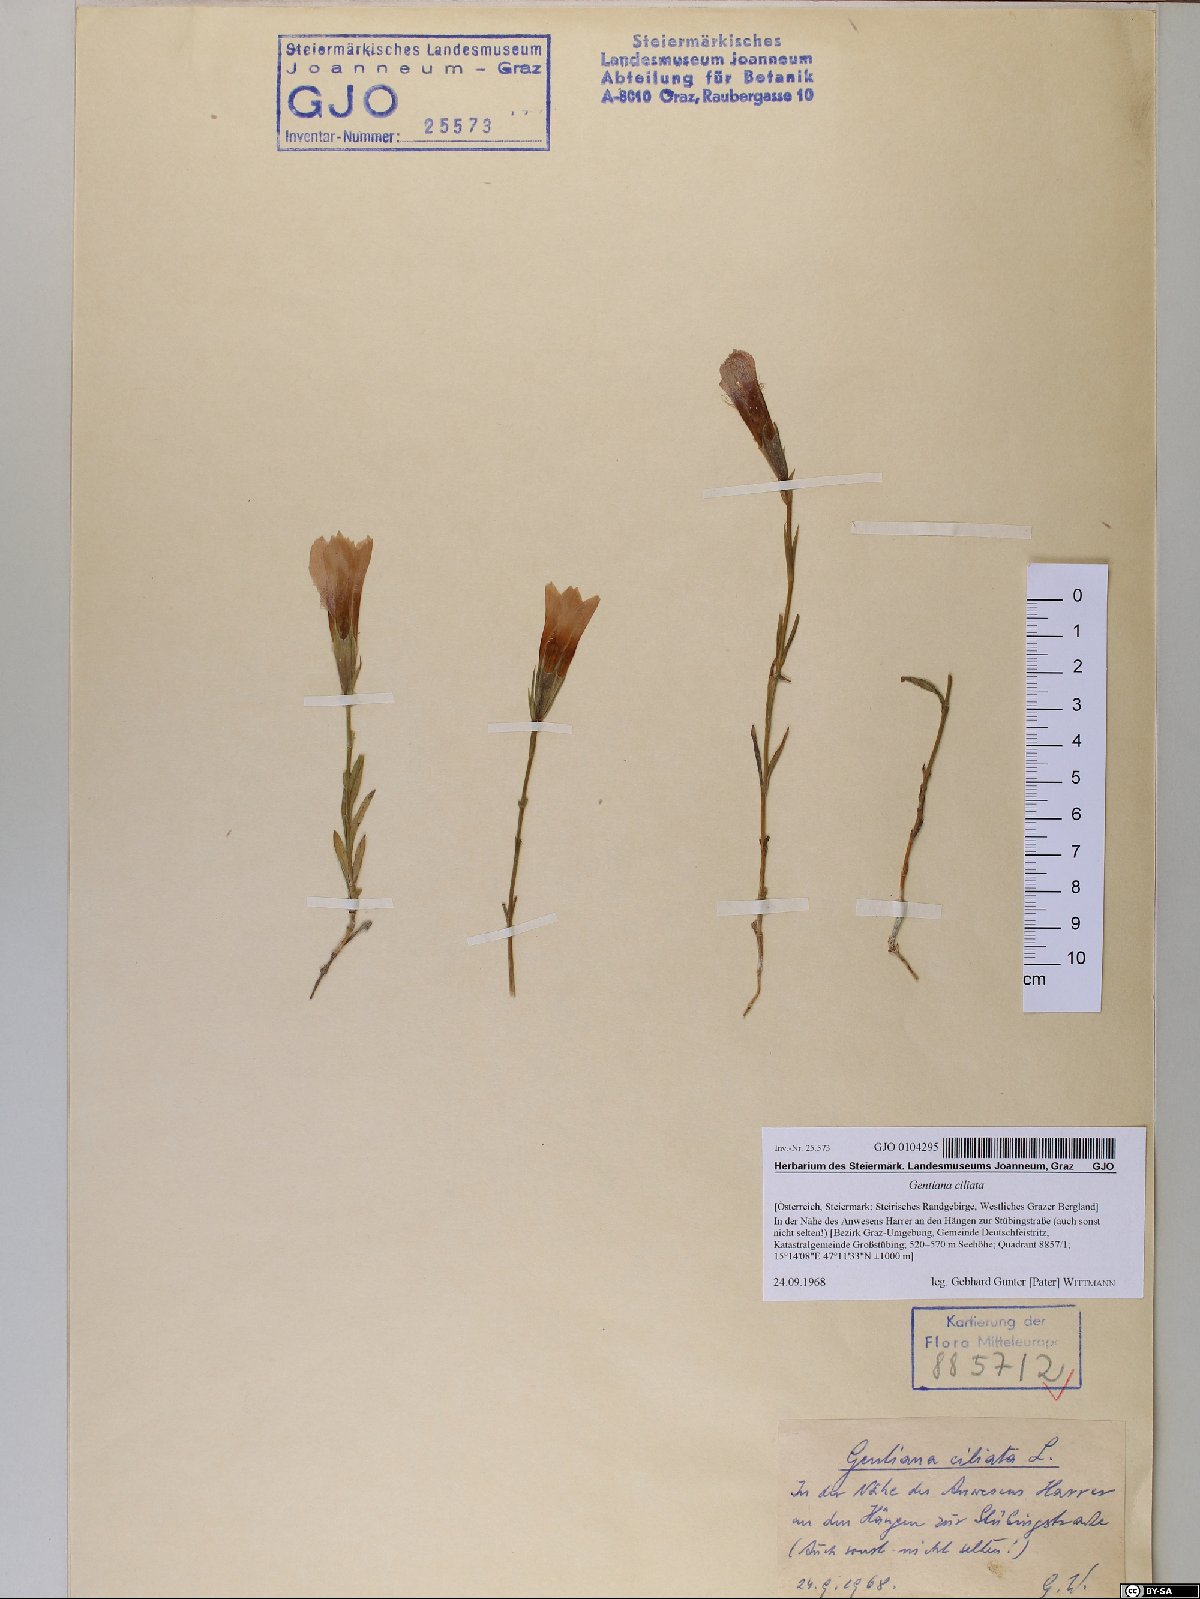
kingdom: Plantae
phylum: Tracheophyta
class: Magnoliopsida
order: Gentianales
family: Gentianaceae
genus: Gentianopsis
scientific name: Gentianopsis ciliata
